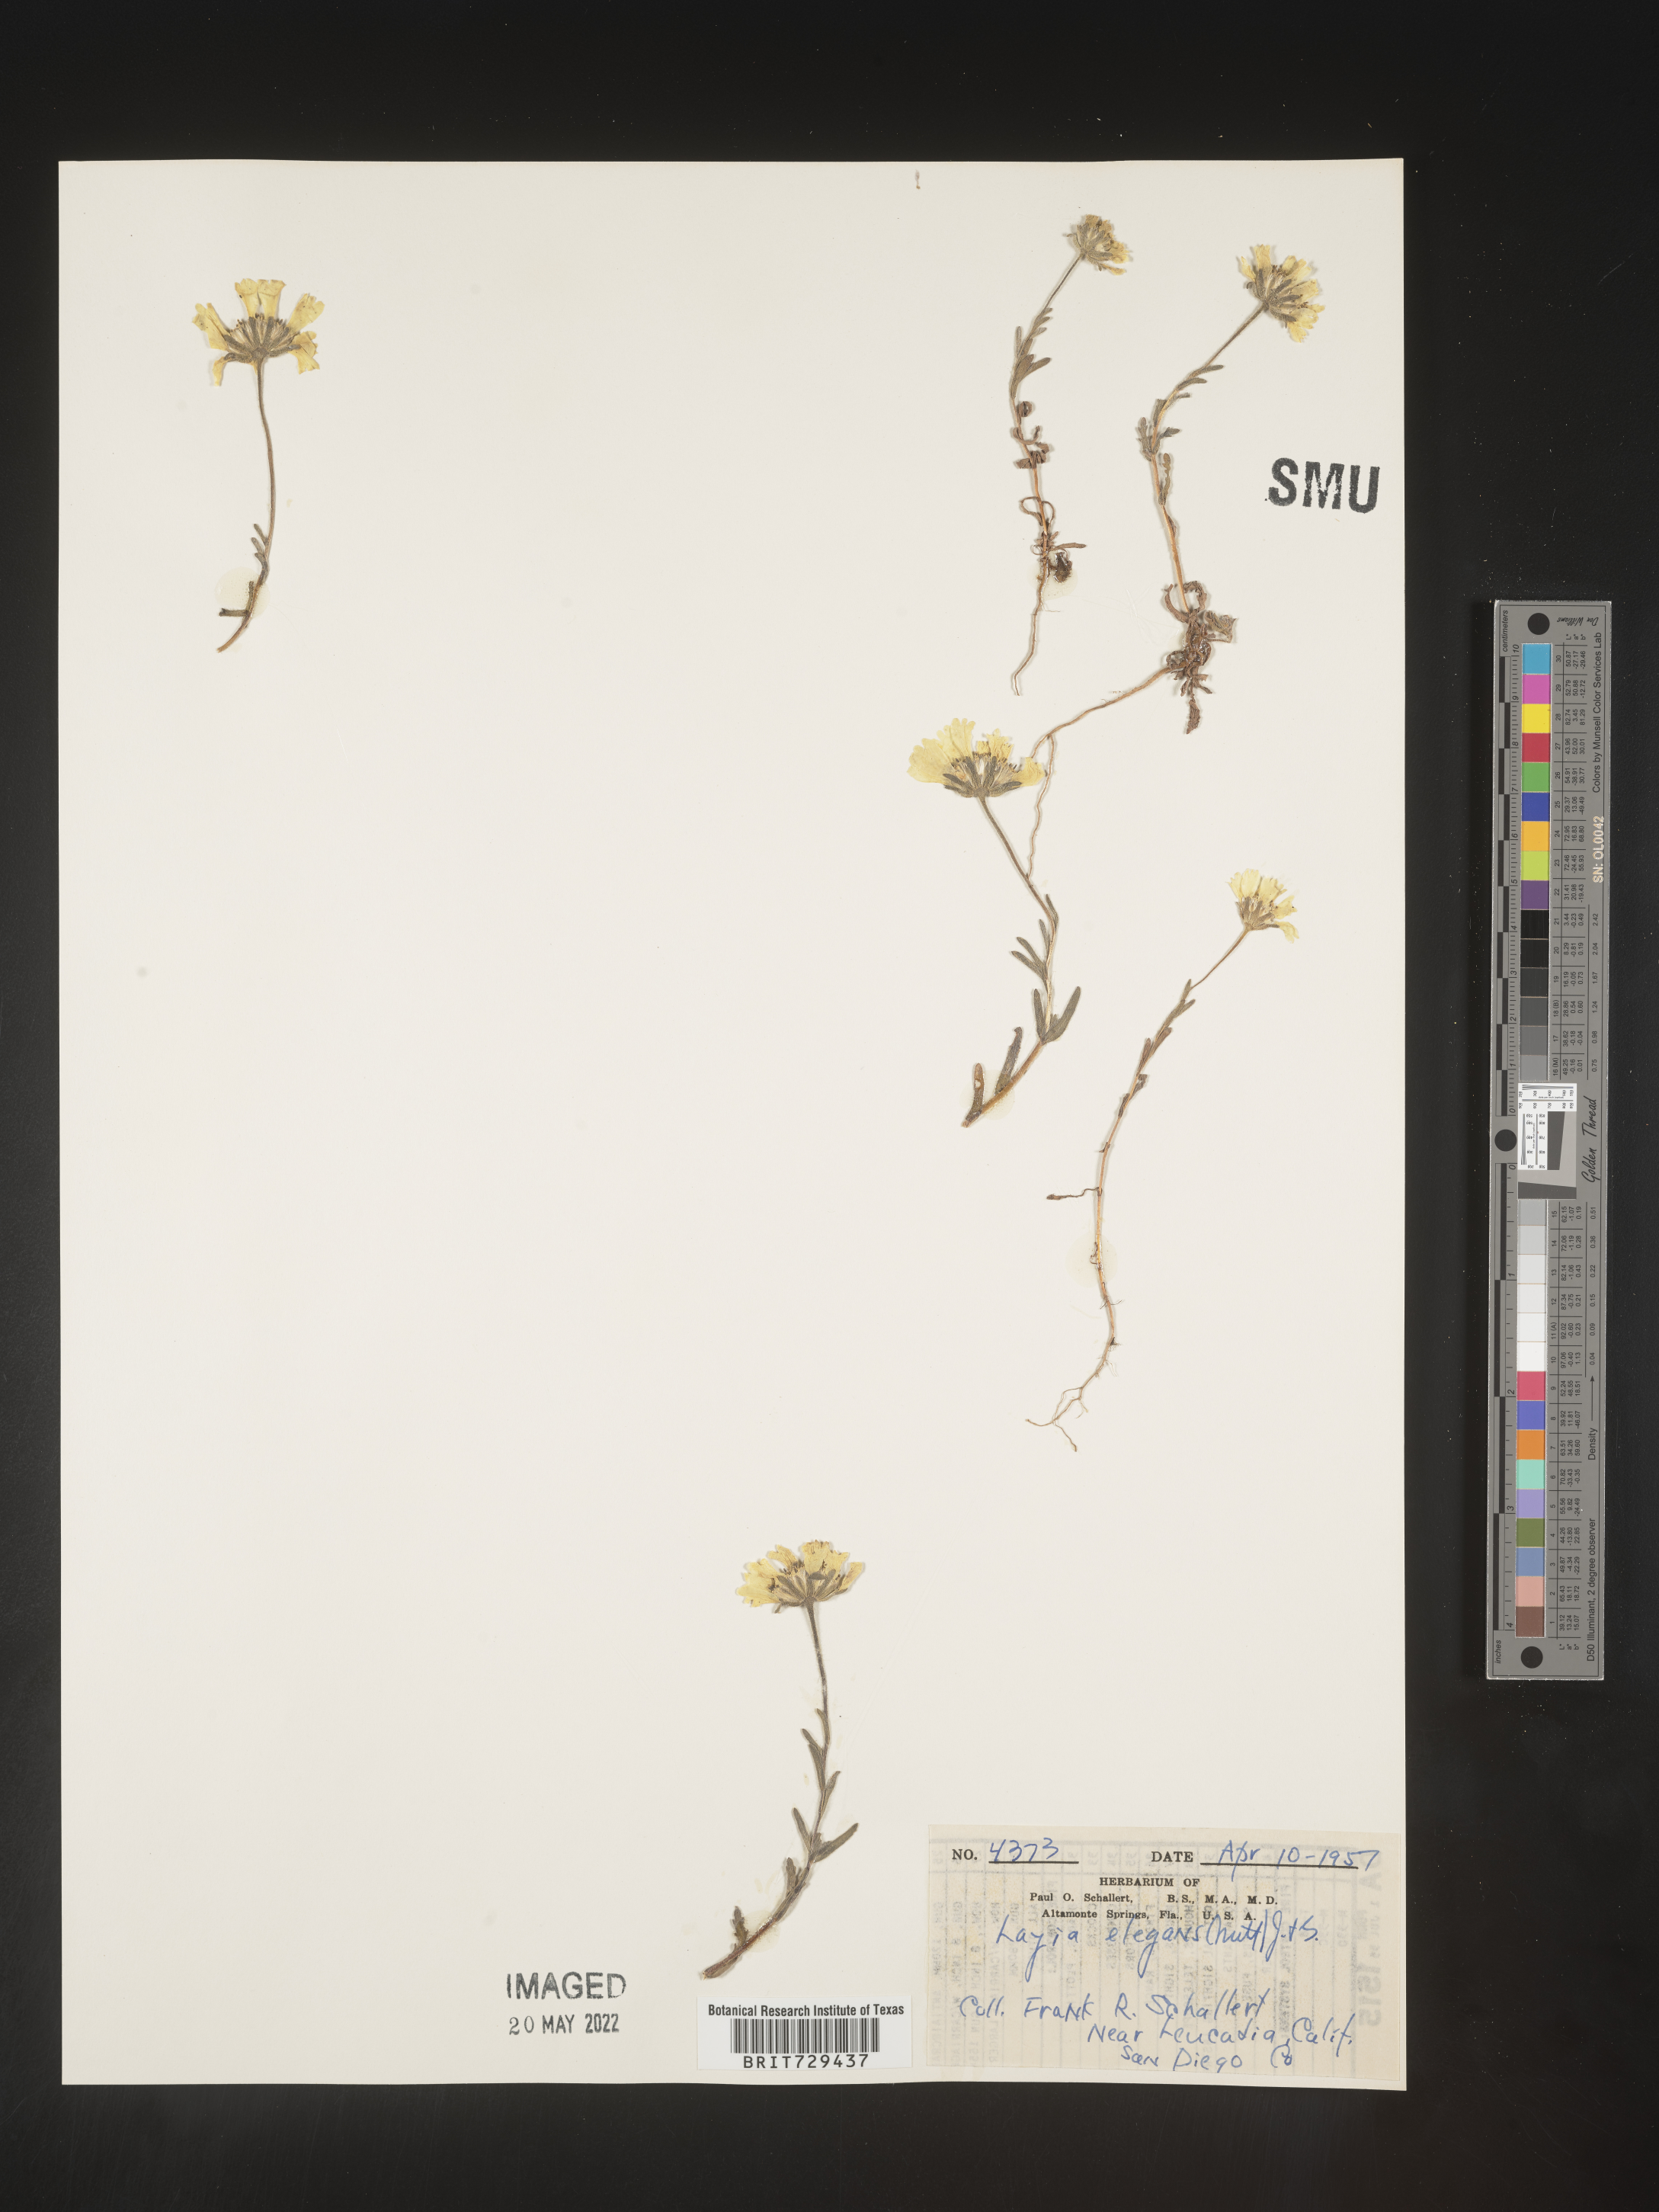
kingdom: Plantae
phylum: Tracheophyta
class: Magnoliopsida
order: Asterales
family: Asteraceae
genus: Layia
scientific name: Layia
